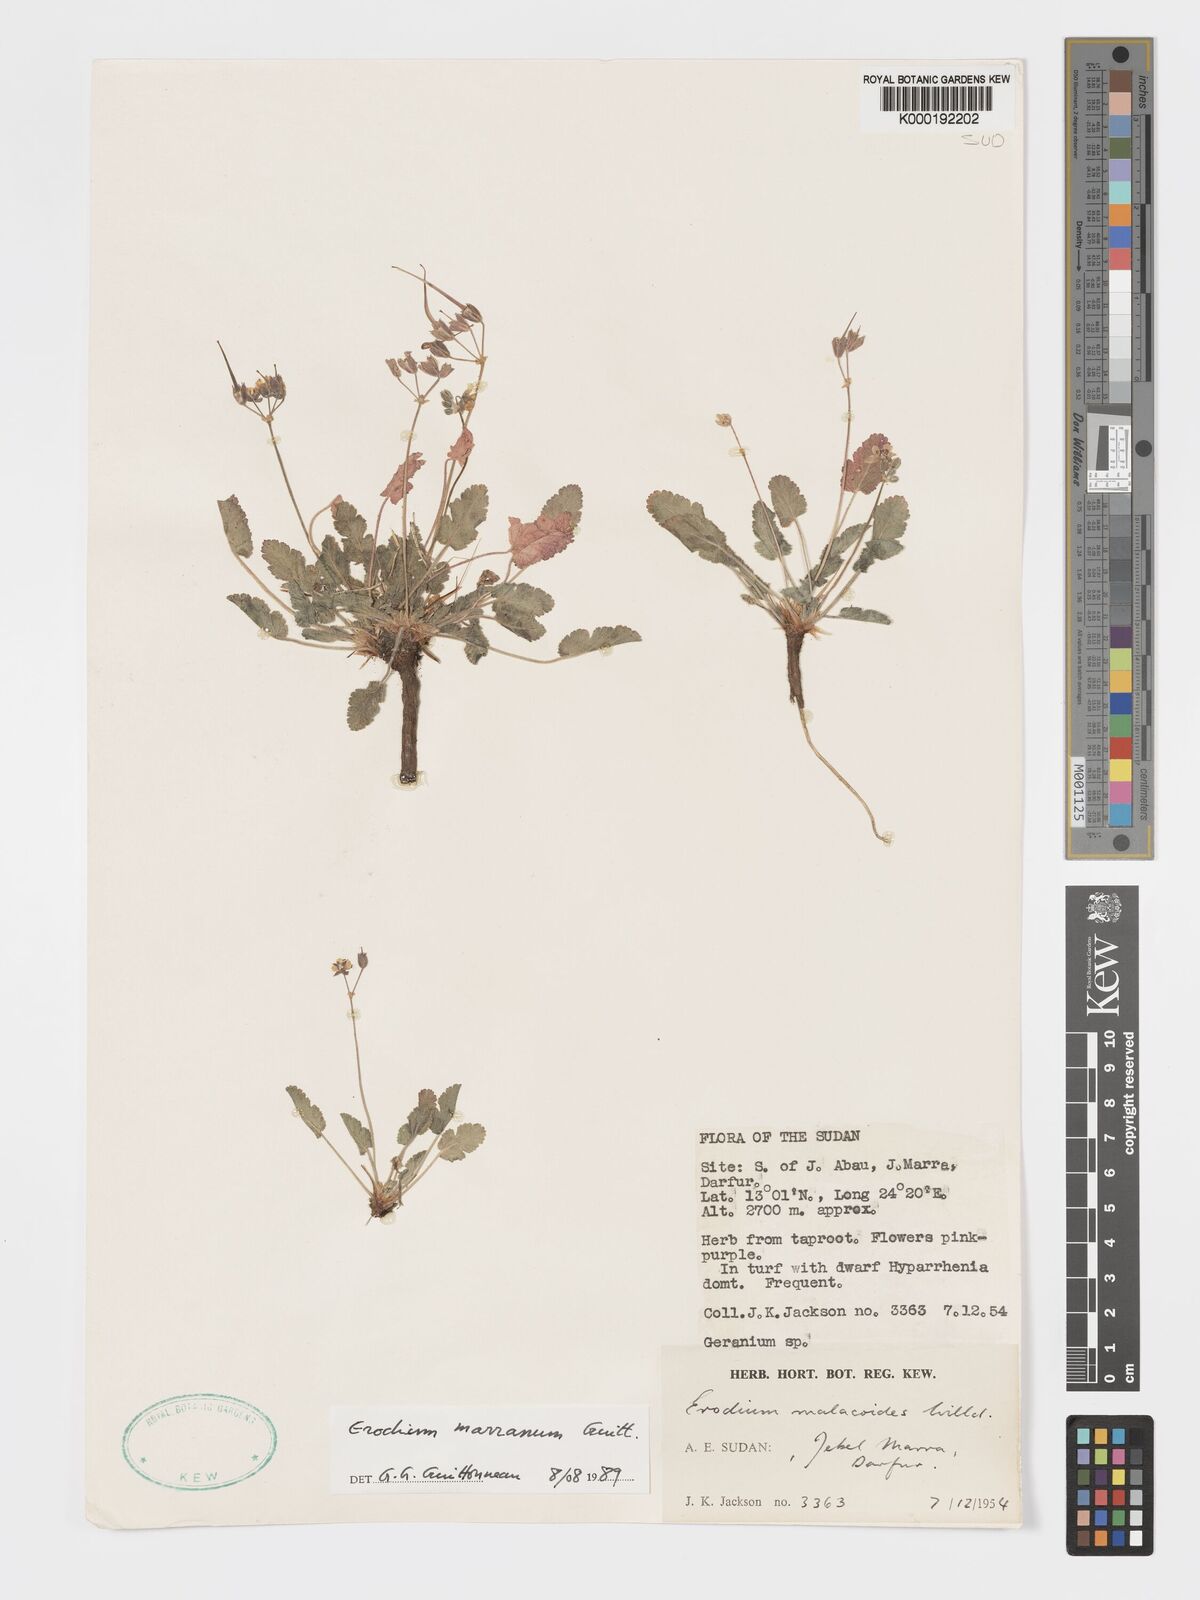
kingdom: Plantae
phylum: Tracheophyta
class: Magnoliopsida
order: Geraniales
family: Geraniaceae
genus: Erodium
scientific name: Erodium neuradifolium
